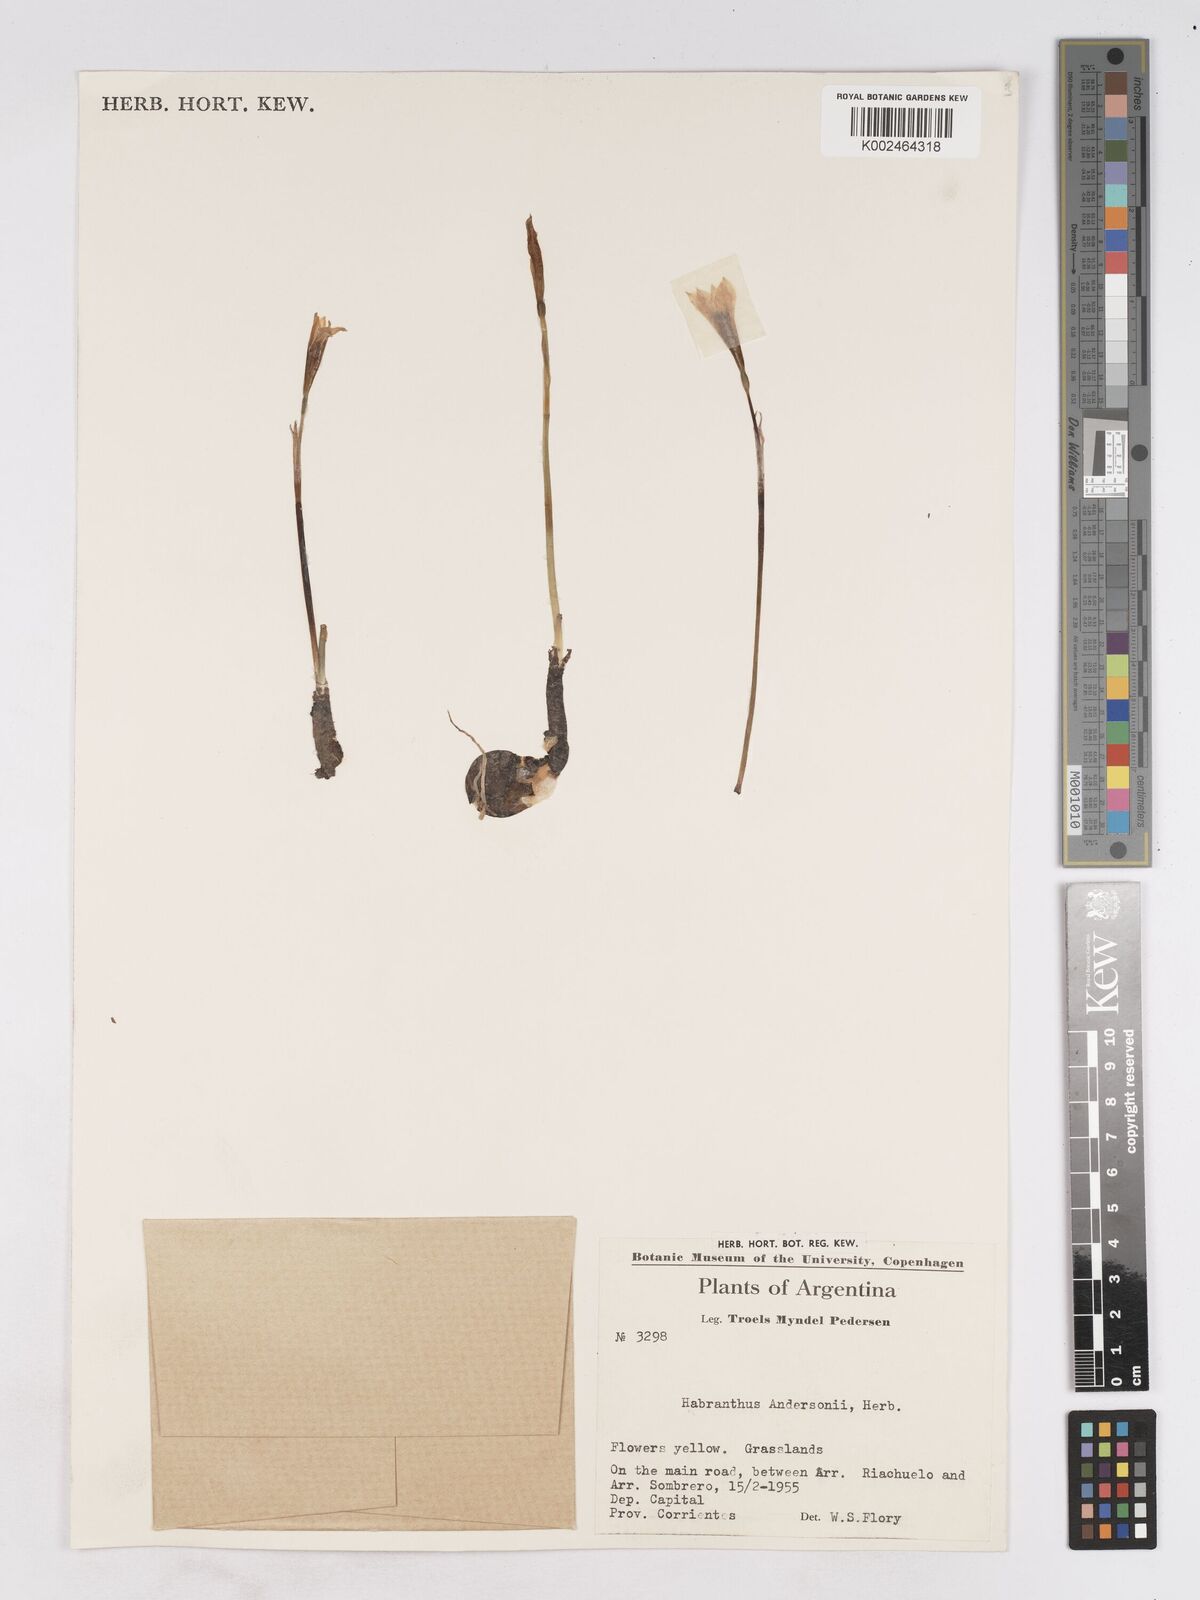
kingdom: Plantae
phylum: Tracheophyta
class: Liliopsida
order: Asparagales
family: Amaryllidaceae
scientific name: Amaryllidaceae
